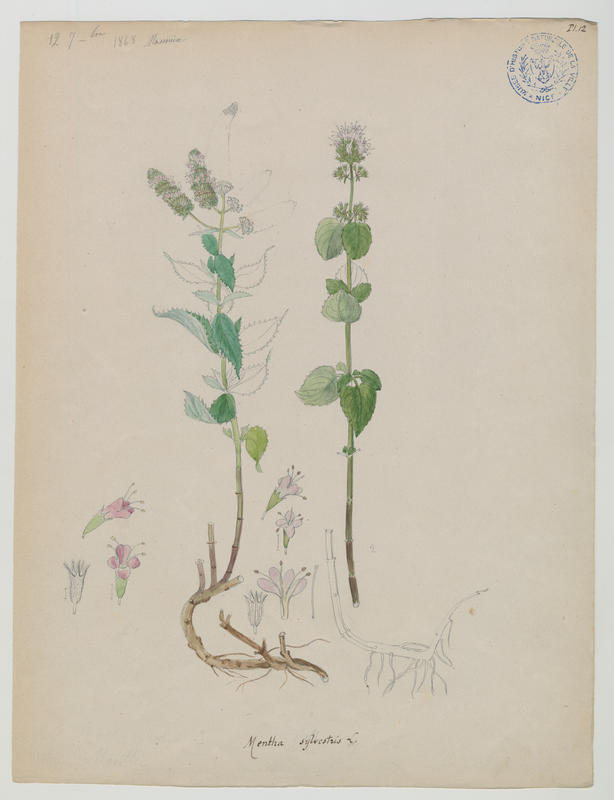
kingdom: Plantae
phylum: Tracheophyta
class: Magnoliopsida
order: Lamiales
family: Lamiaceae
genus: Mentha
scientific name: Mentha longifolia
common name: Horse mint
